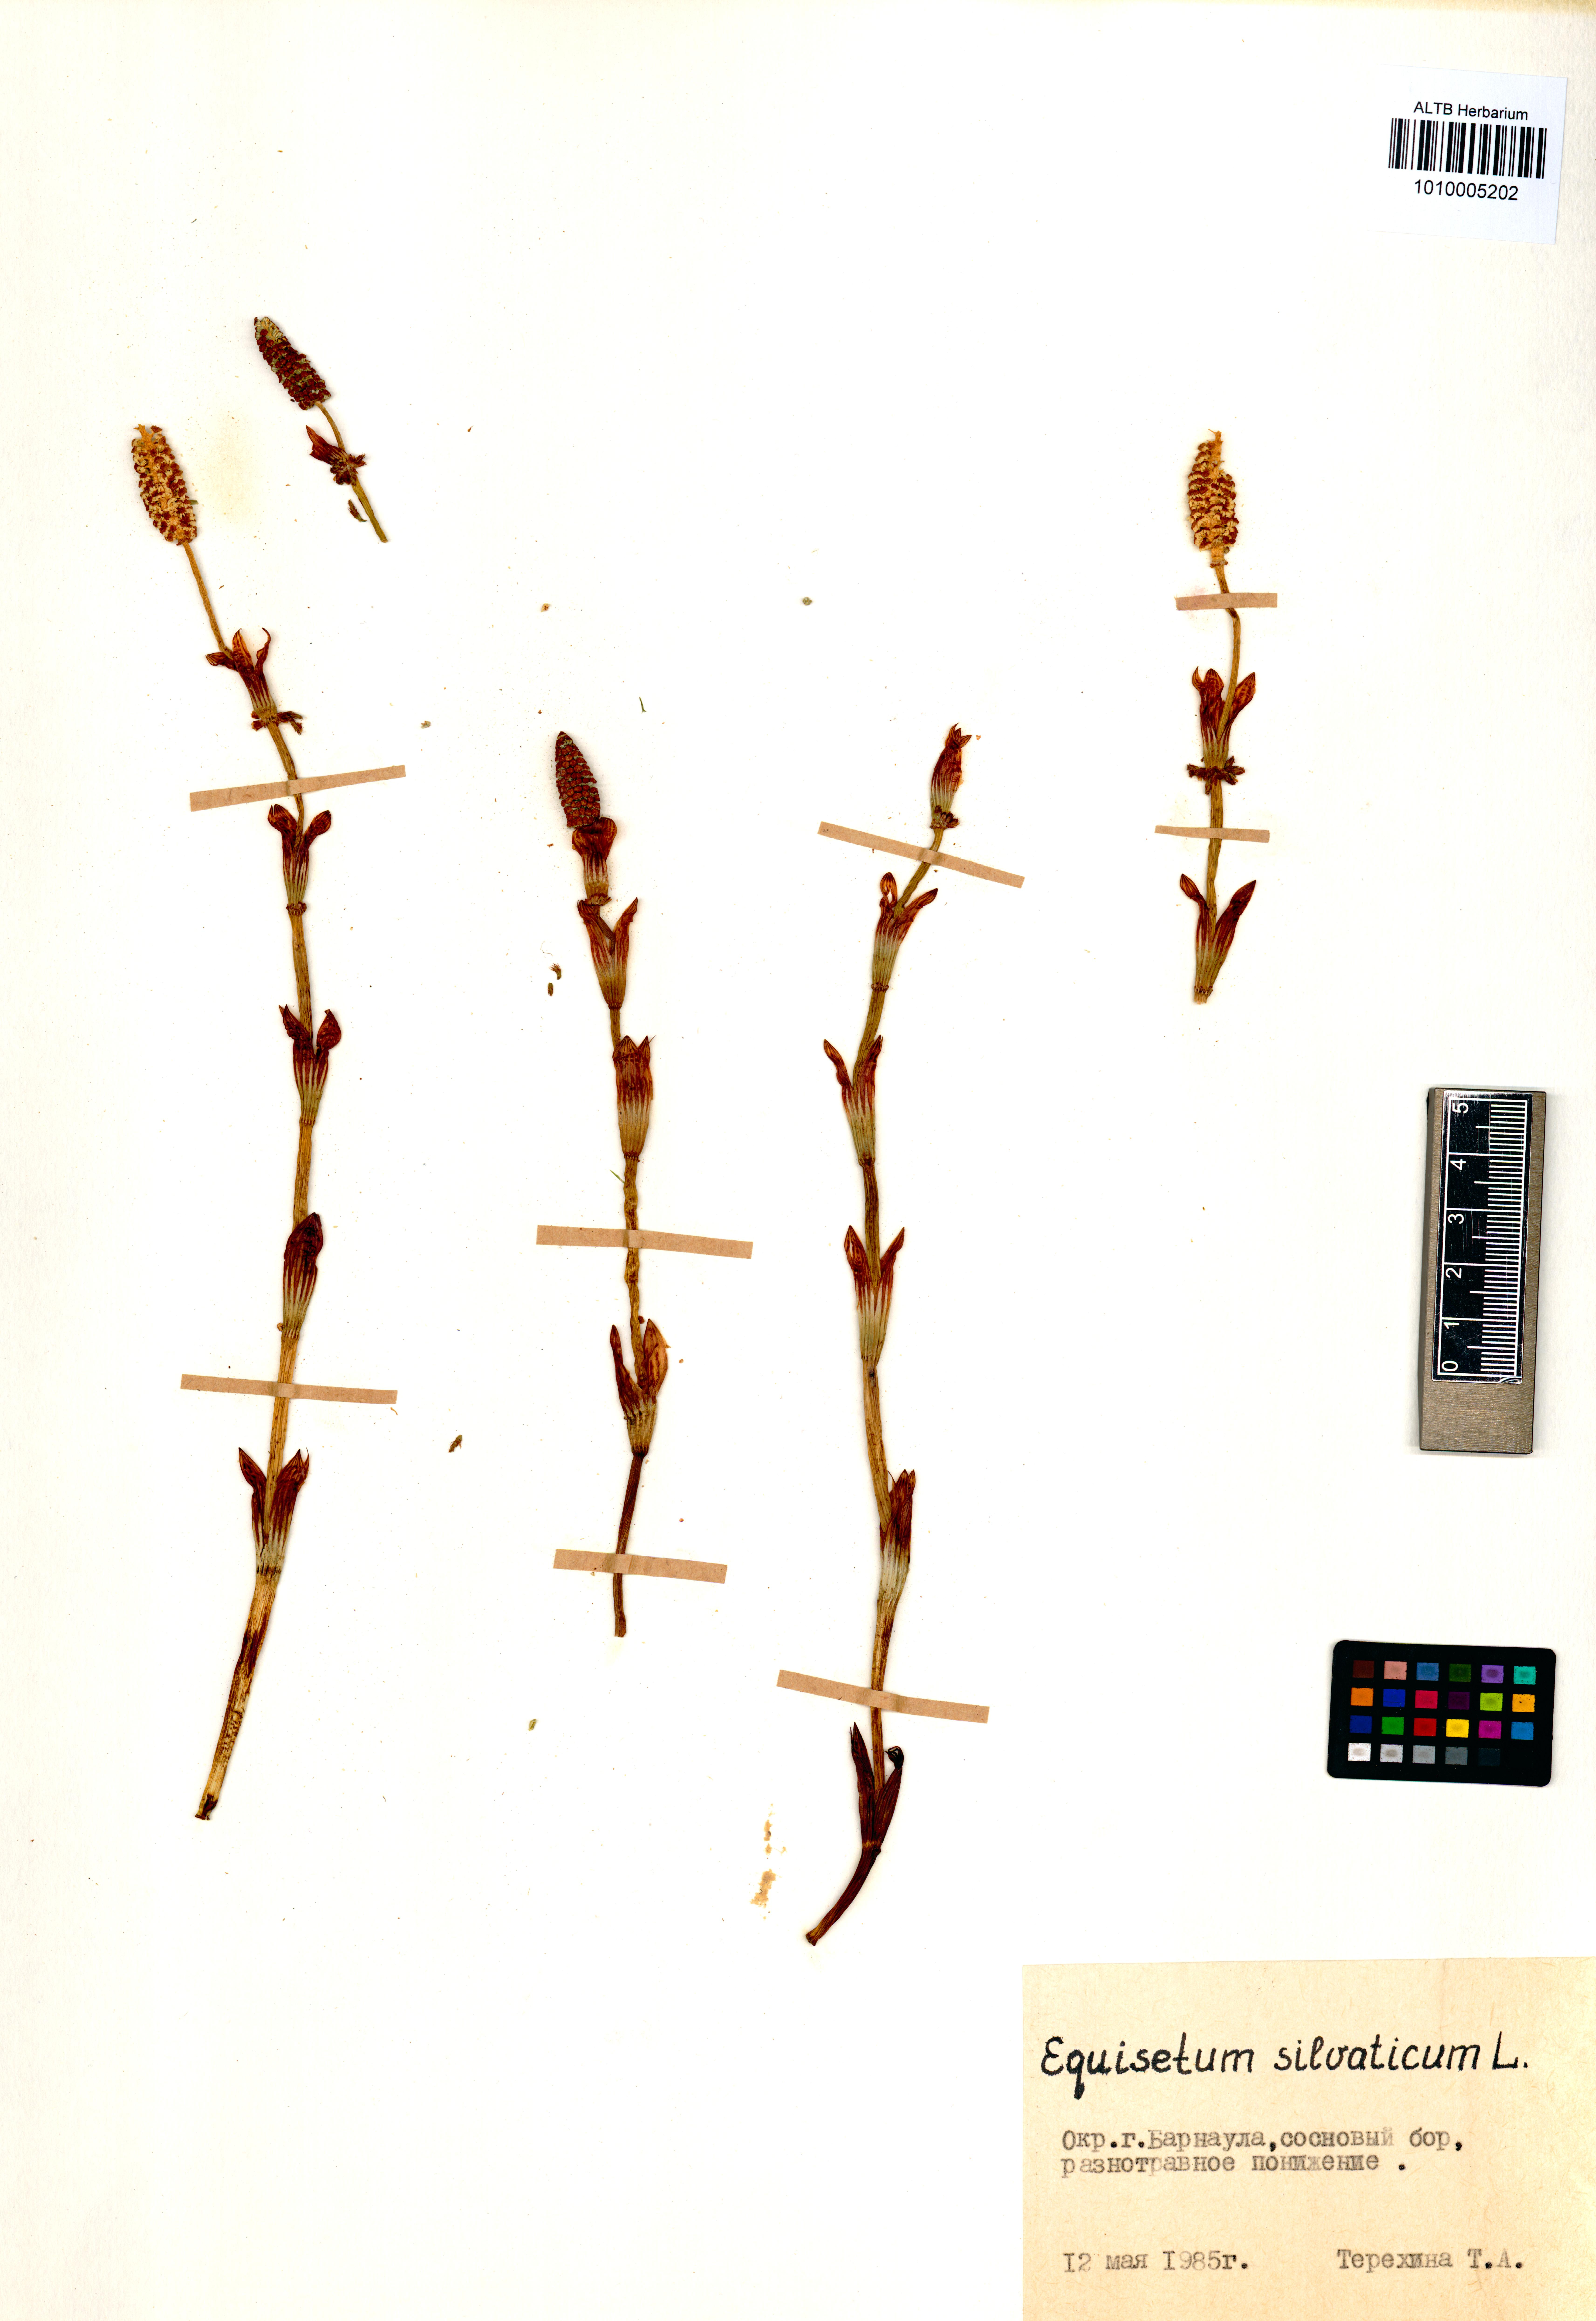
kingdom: Plantae
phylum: Tracheophyta
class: Polypodiopsida
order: Equisetales
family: Equisetaceae
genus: Equisetum
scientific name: Equisetum sylvaticum
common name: Wood horsetail
